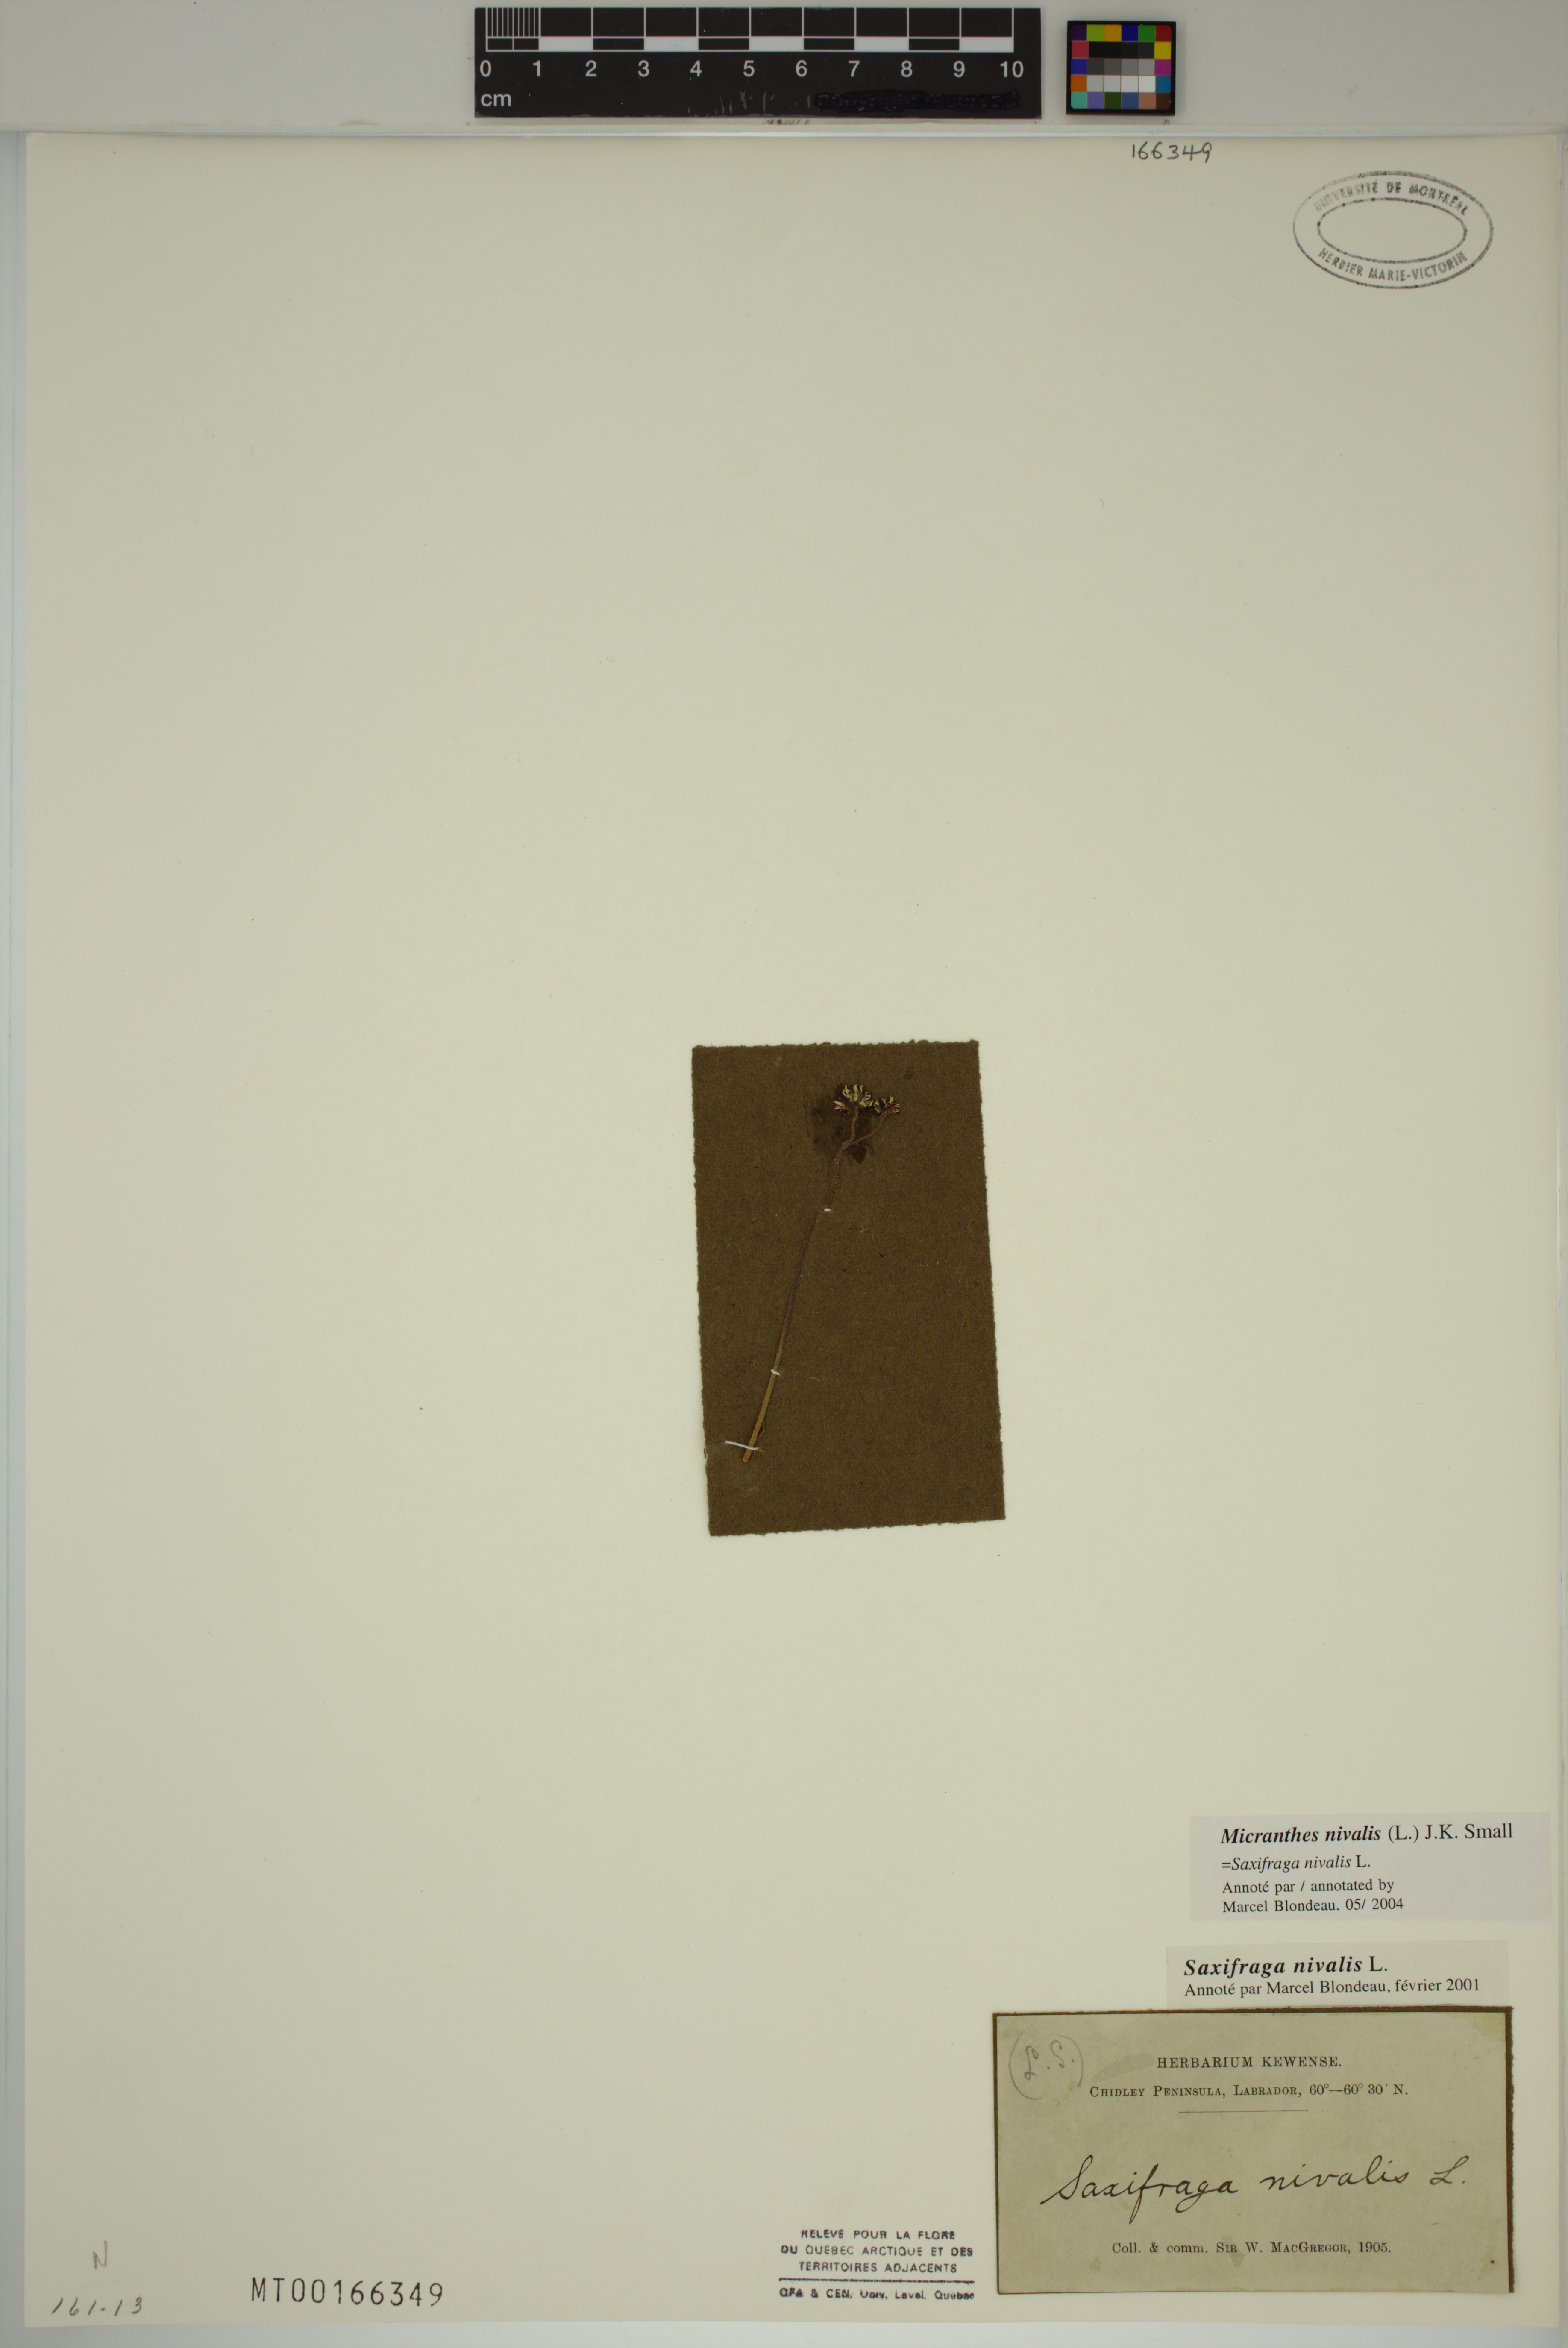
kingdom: Plantae
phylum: Tracheophyta
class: Magnoliopsida
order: Saxifragales
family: Saxifragaceae
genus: Micranthes
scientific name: Micranthes nivalis
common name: Alpine saxifrage
